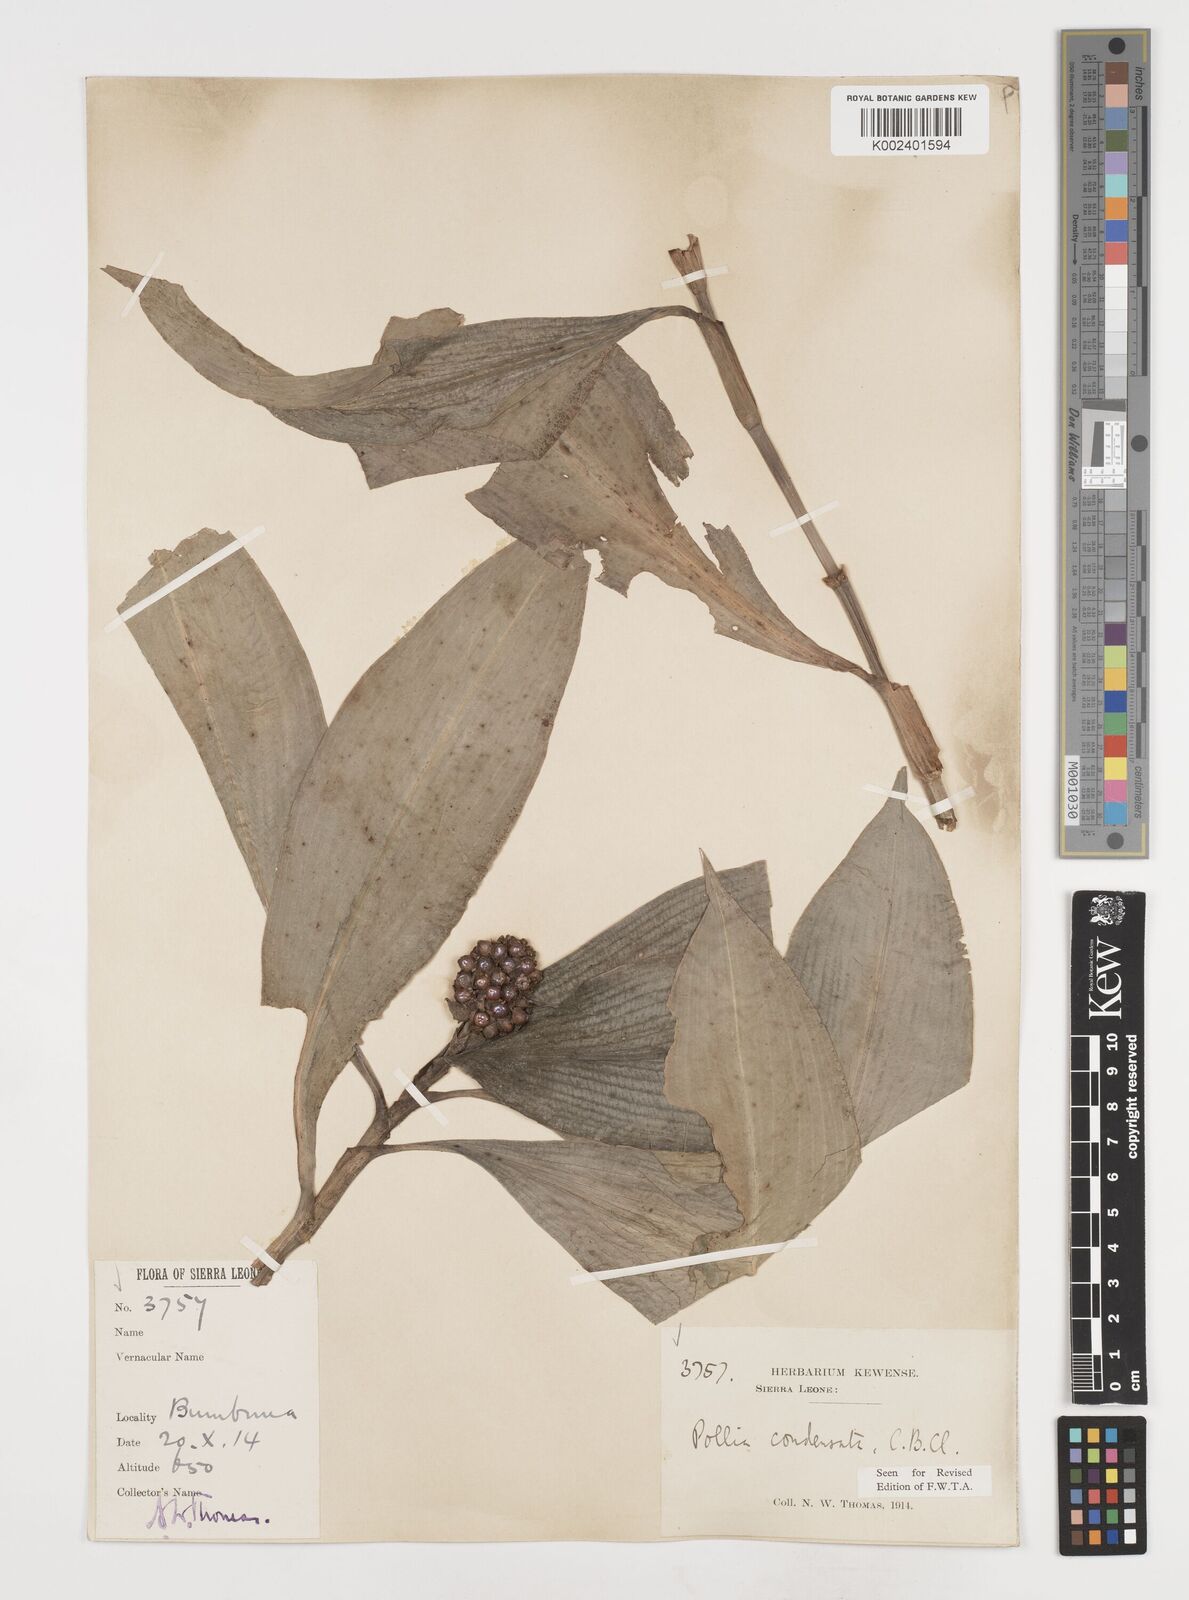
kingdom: Plantae
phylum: Tracheophyta
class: Liliopsida
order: Commelinales
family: Commelinaceae
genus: Pollia
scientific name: Pollia condensata
